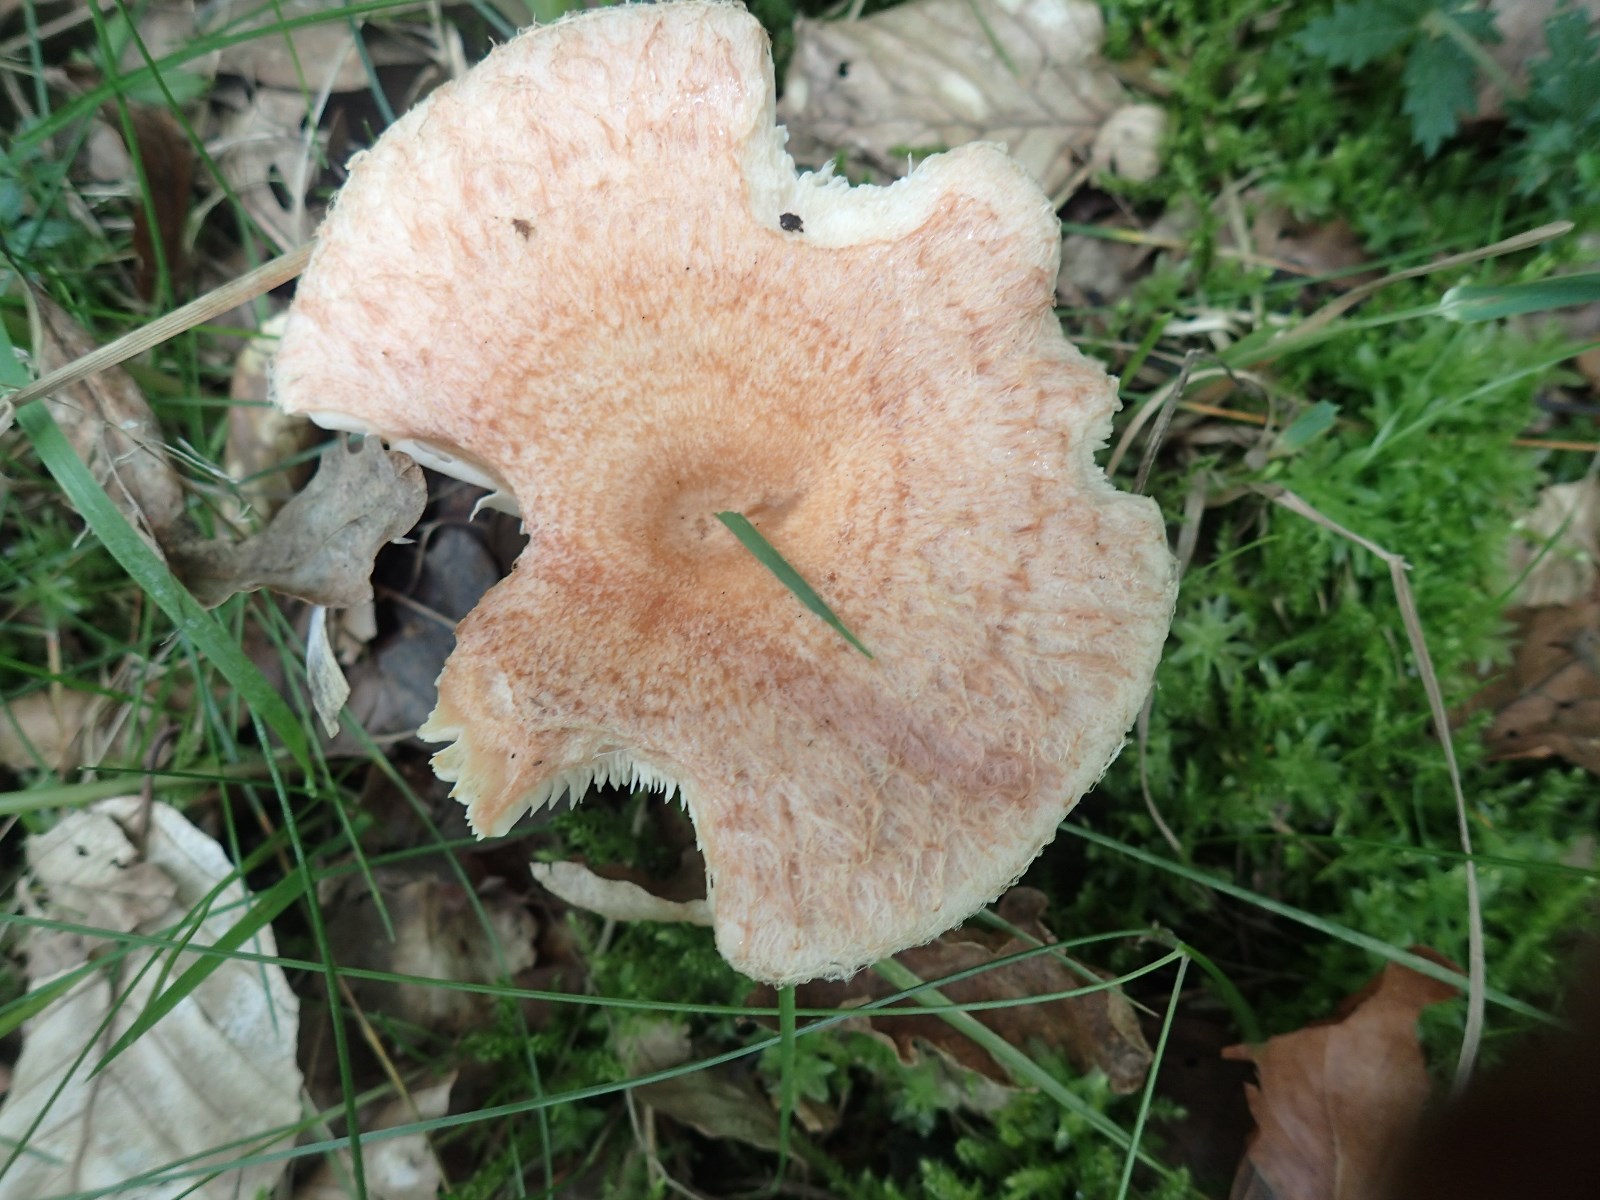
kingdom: Fungi
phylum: Basidiomycota
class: Agaricomycetes
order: Russulales
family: Russulaceae
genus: Lactarius
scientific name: Lactarius quietus
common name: ege-mælkehat
